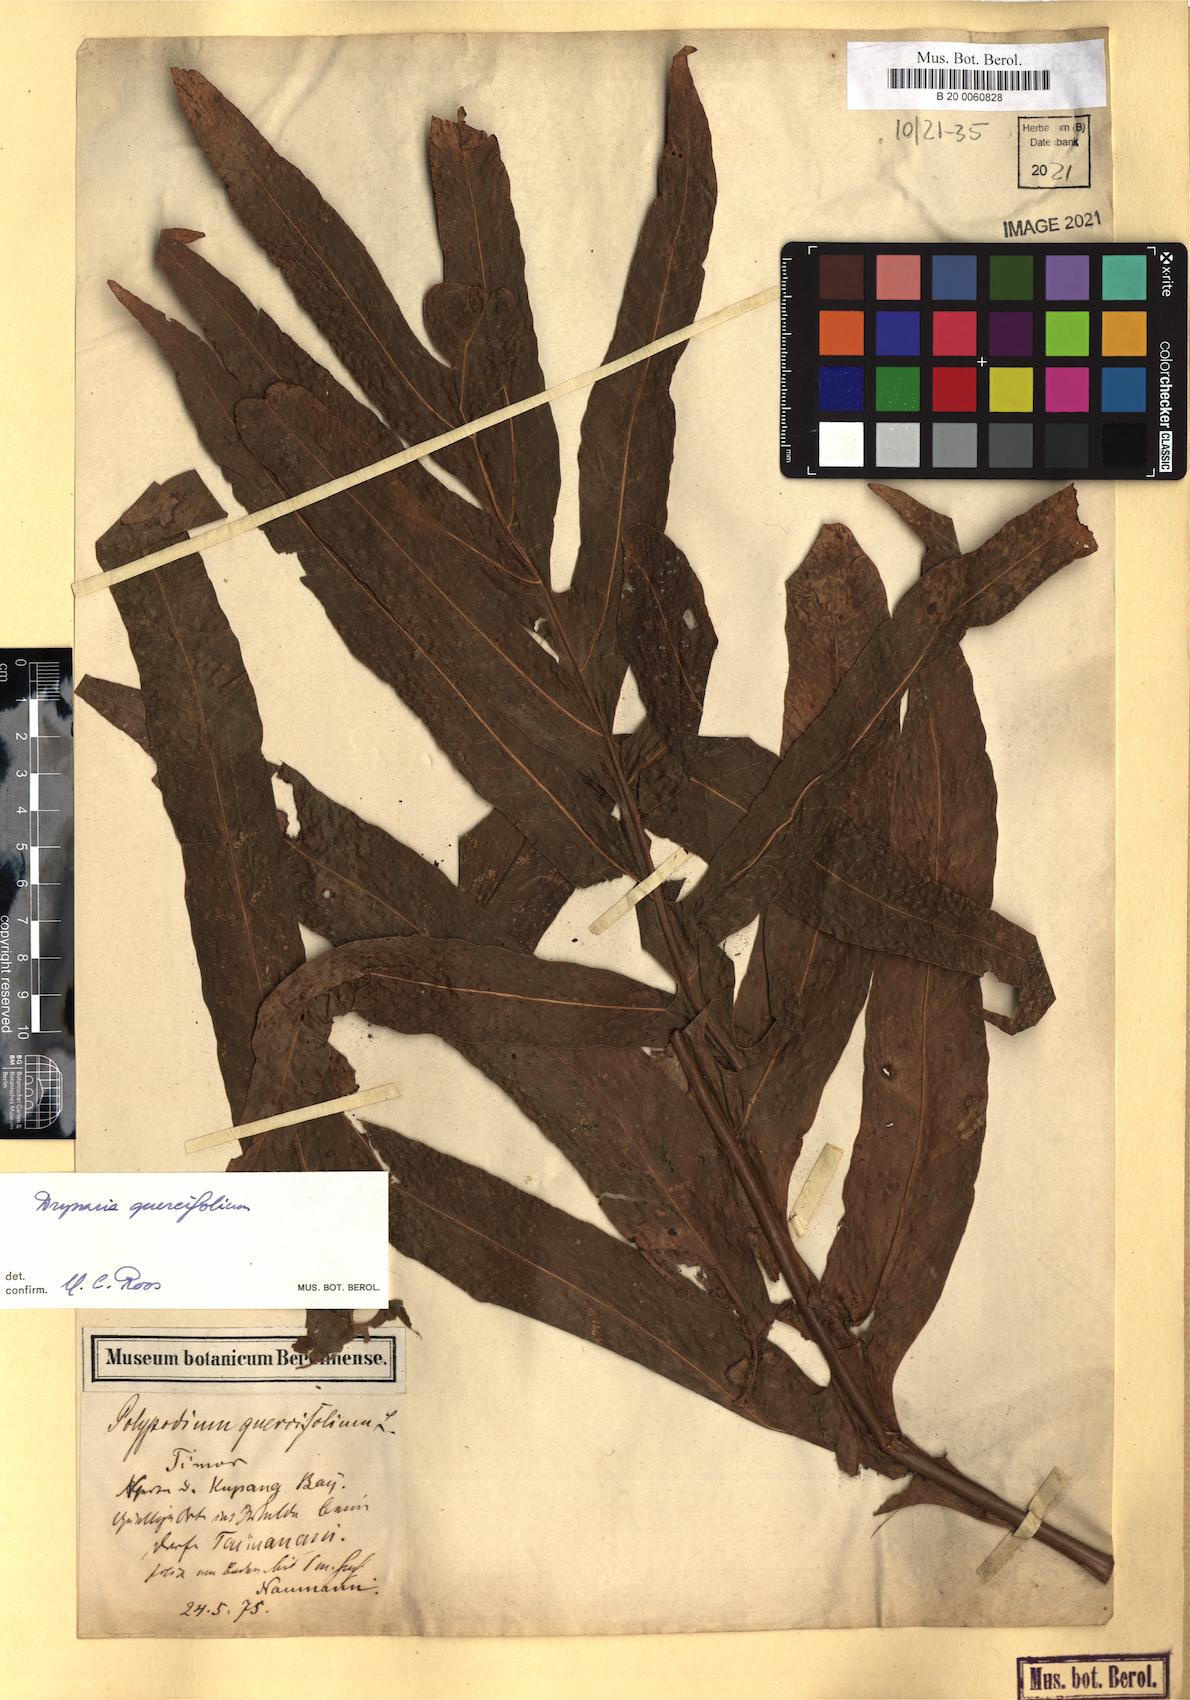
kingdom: Plantae
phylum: Tracheophyta
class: Polypodiopsida
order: Polypodiales
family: Polypodiaceae
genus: Drynaria
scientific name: Drynaria quercifolia
